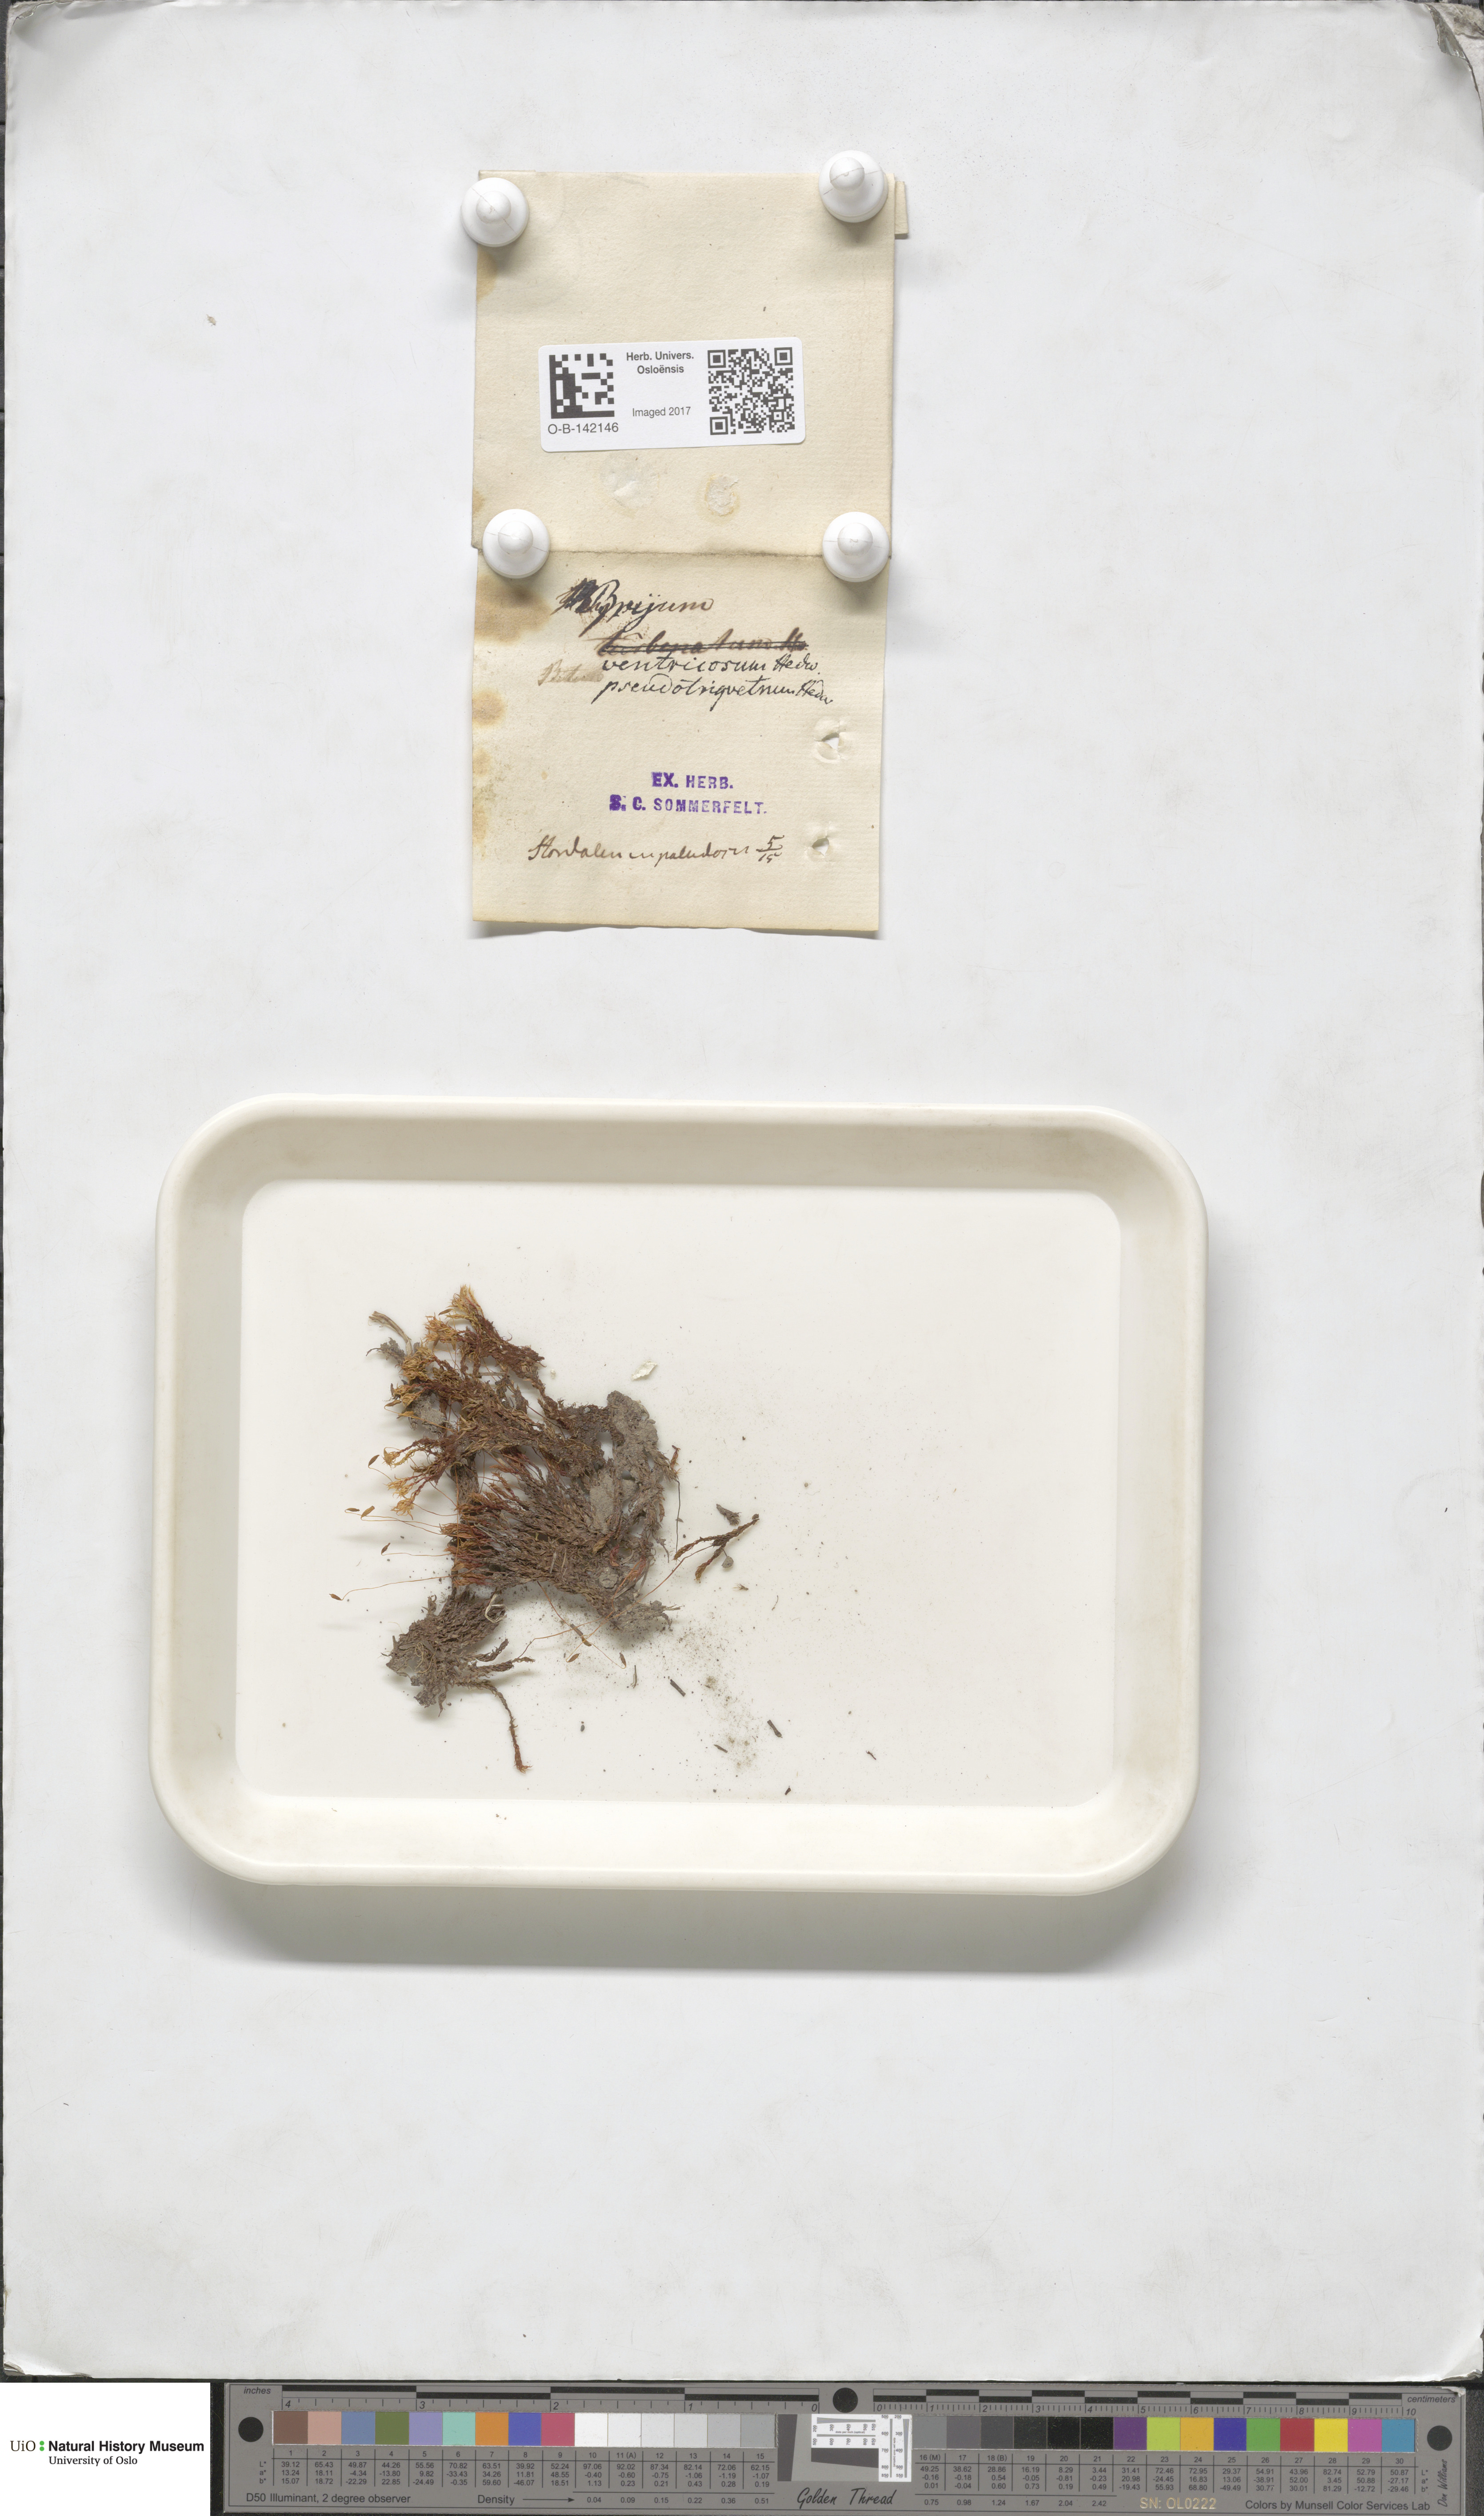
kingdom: Plantae
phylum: Bryophyta
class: Bryopsida
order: Bryales
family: Bryaceae
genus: Ptychostomum
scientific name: Ptychostomum pseudotriquetrum
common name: Long-leaved thread moss
